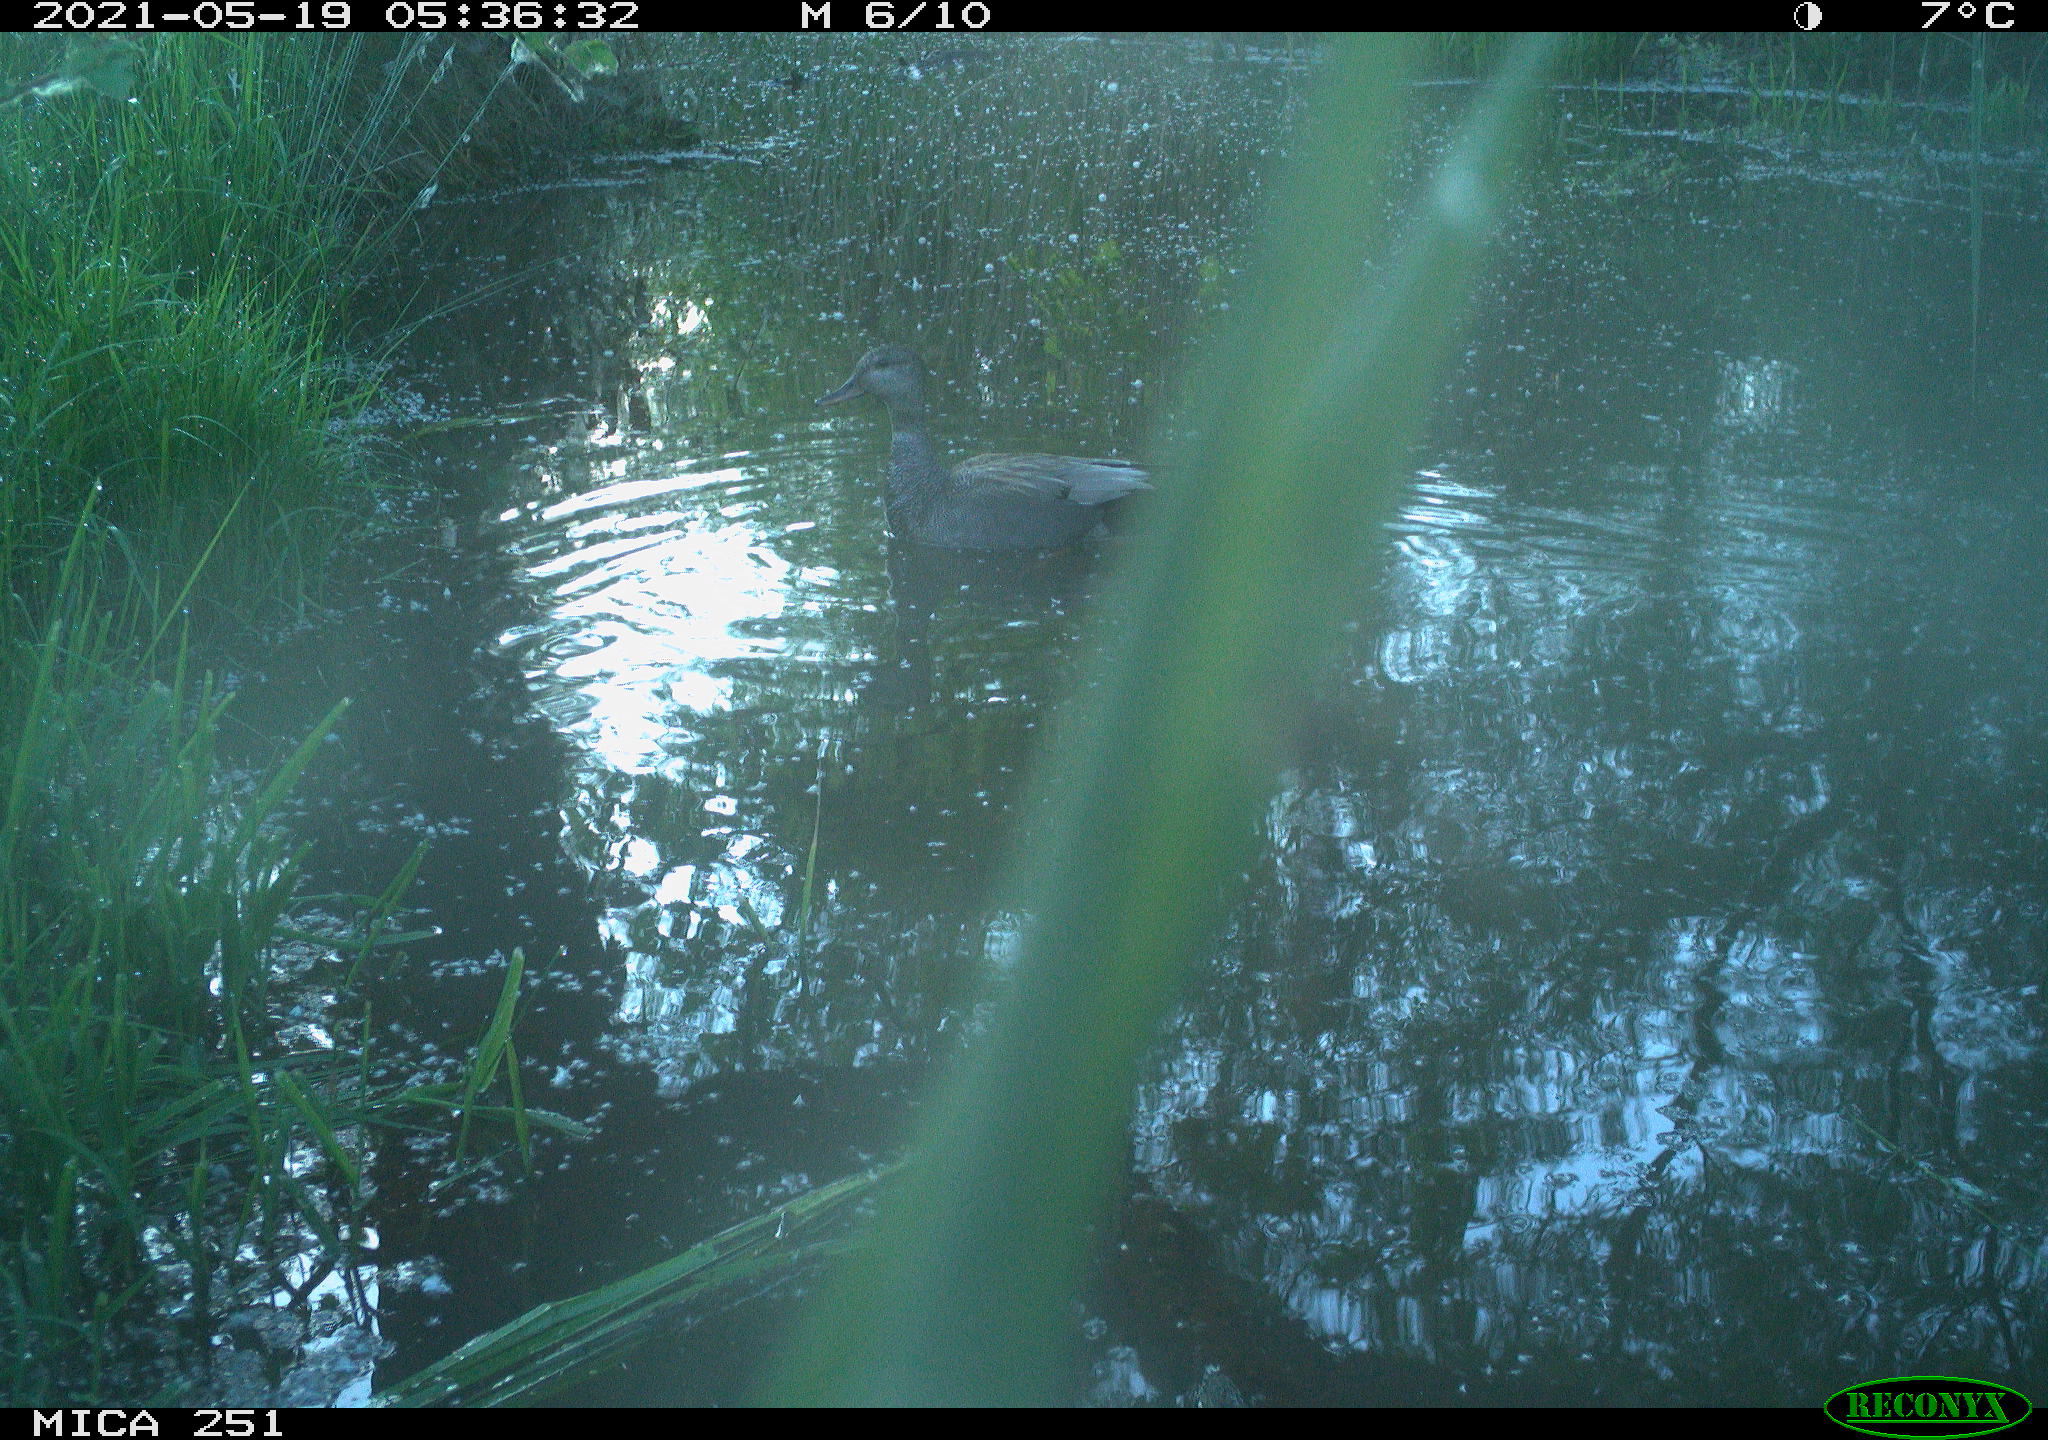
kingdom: Animalia
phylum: Chordata
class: Aves
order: Anseriformes
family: Anatidae
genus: Anas
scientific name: Anas
